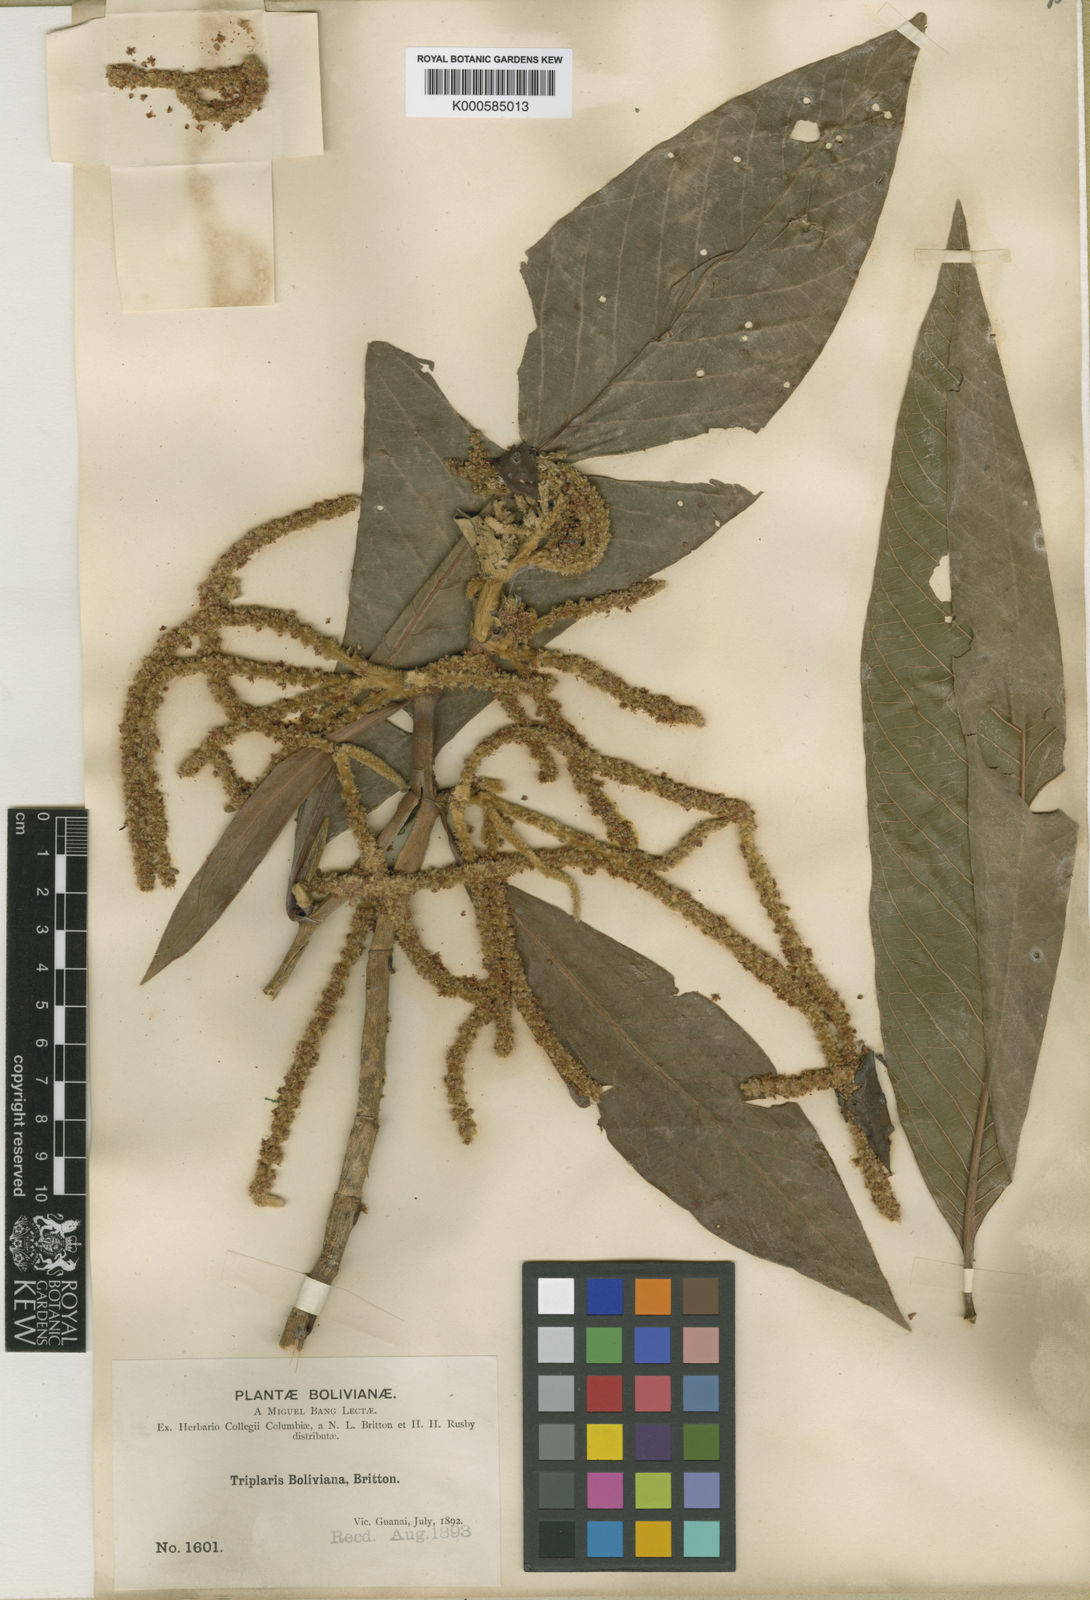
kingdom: Plantae
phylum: Tracheophyta
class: Magnoliopsida
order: Caryophyllales
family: Polygonaceae
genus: Triplaris
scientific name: Triplaris americana
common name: Ant-tree
